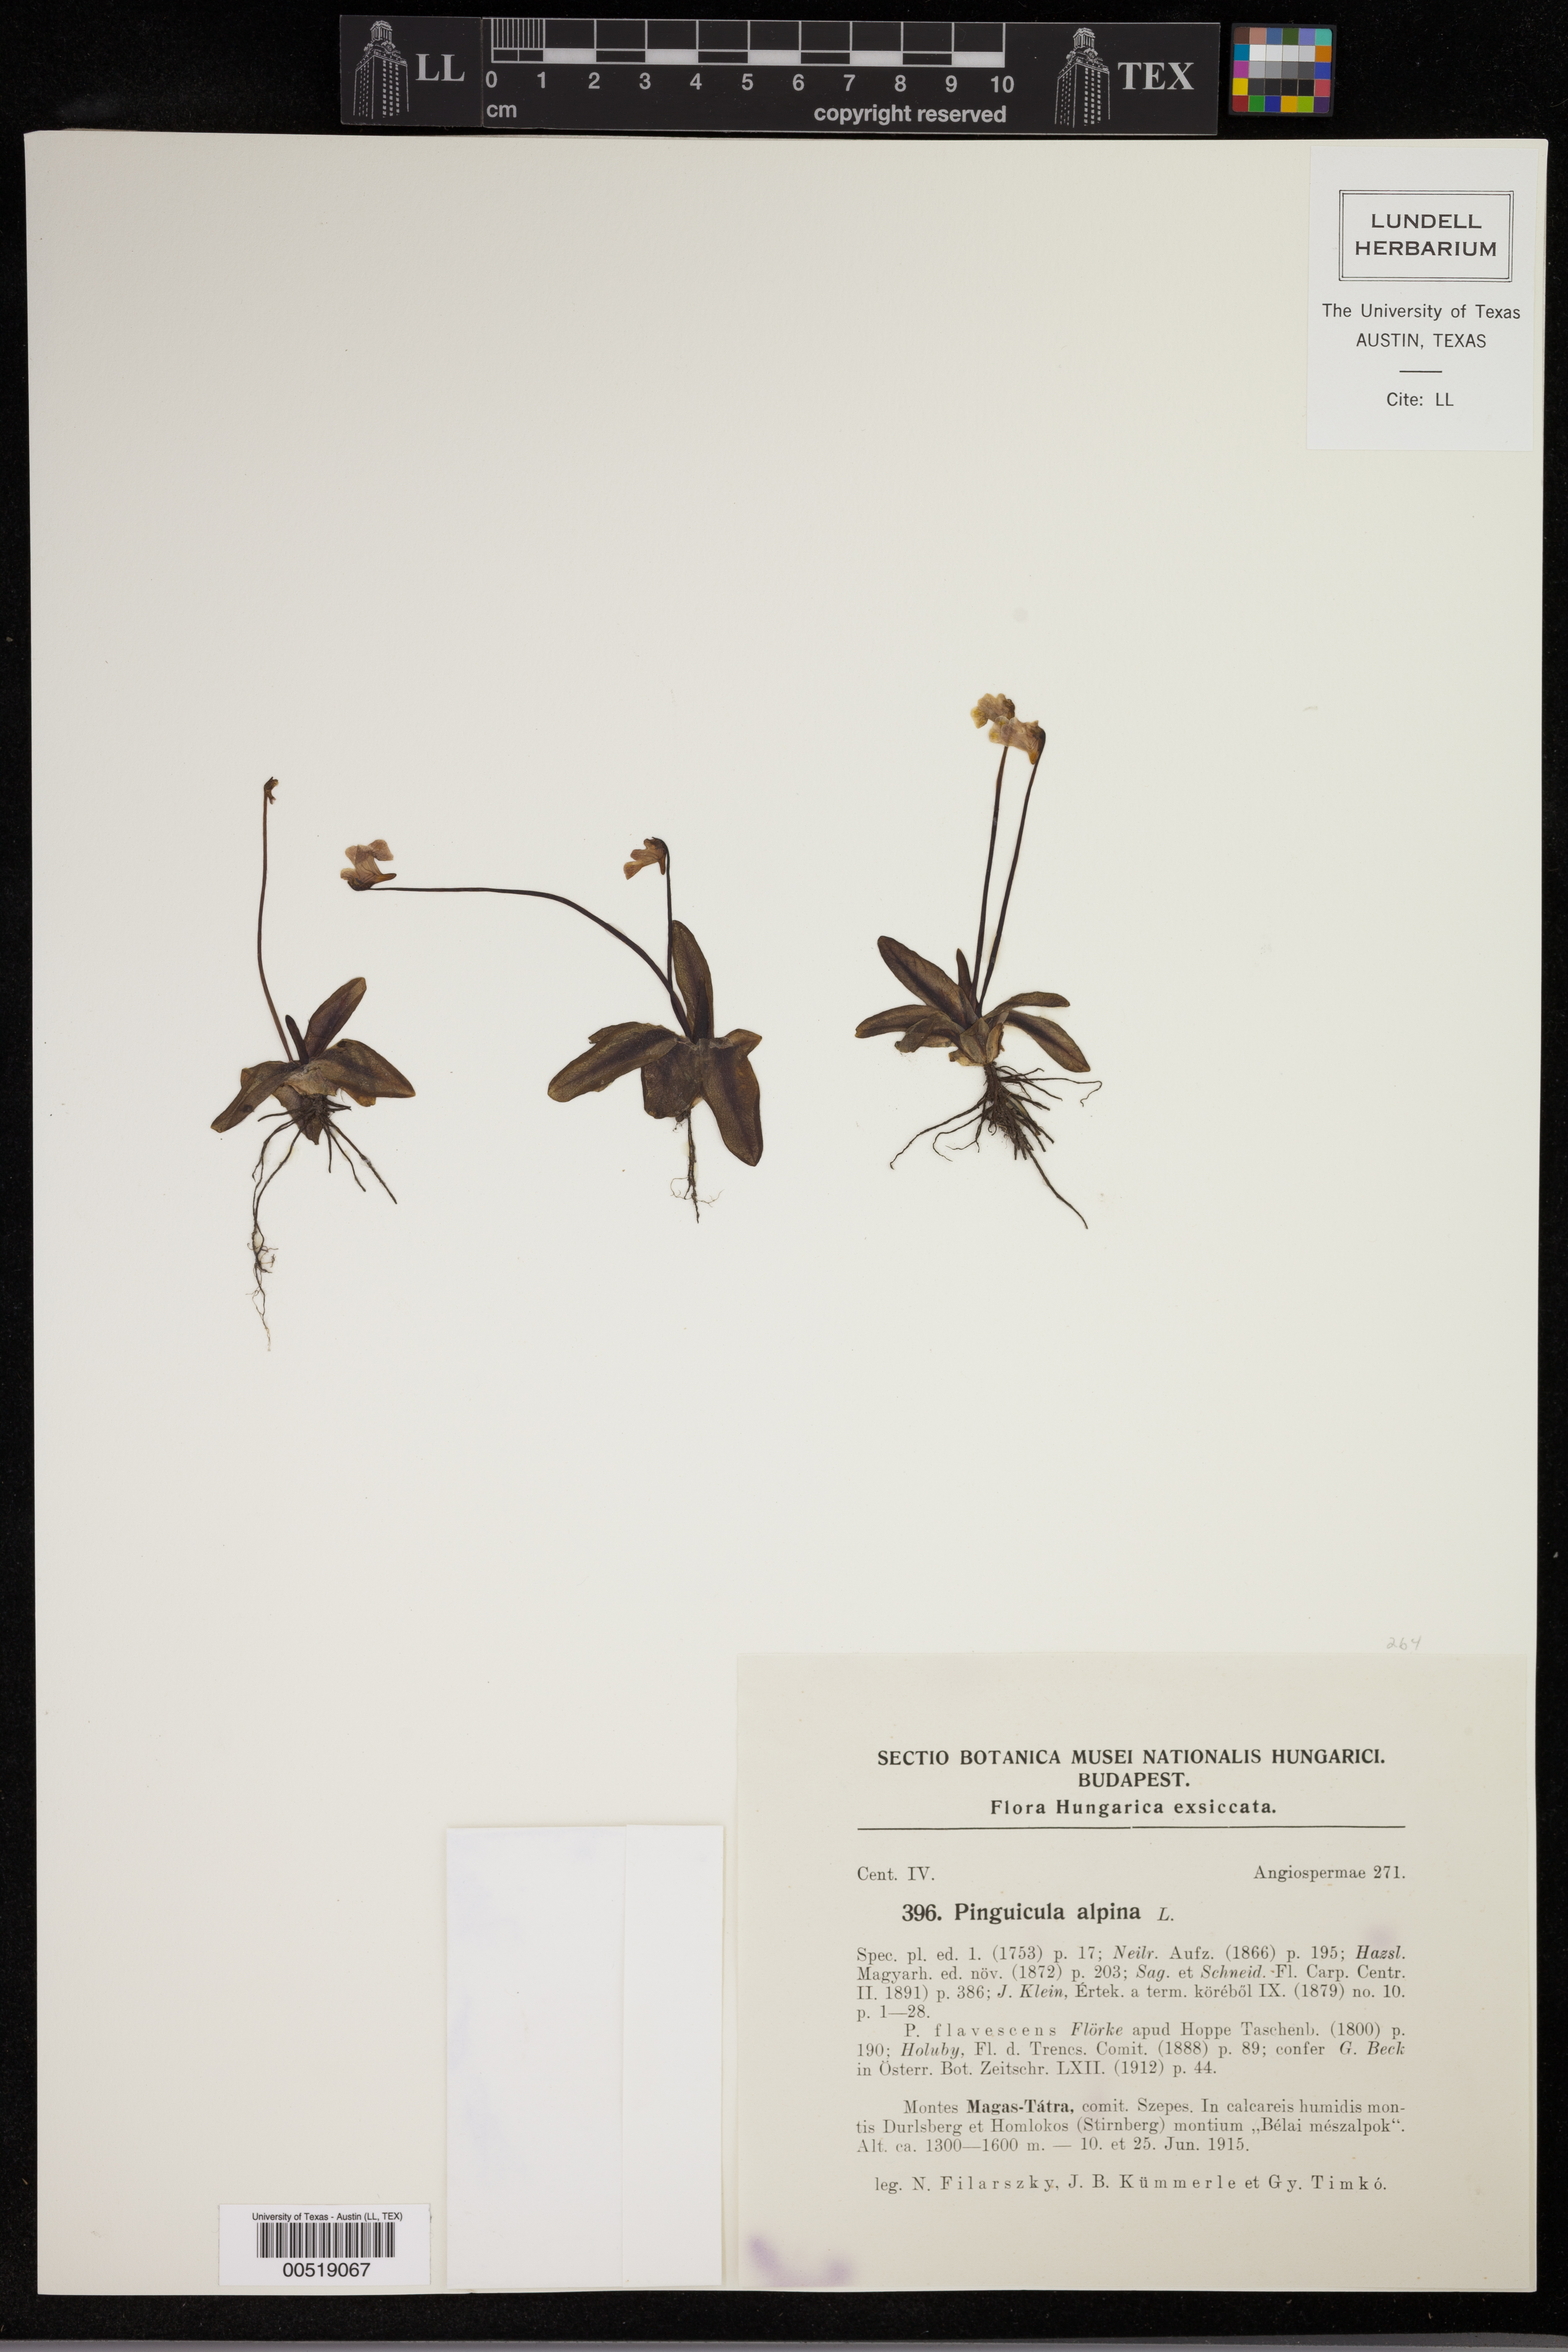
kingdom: Plantae
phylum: Tracheophyta
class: Magnoliopsida
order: Lamiales
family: Lentibulariaceae
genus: Pinguicula
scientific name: Pinguicula alpina
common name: Alpine butterwort
